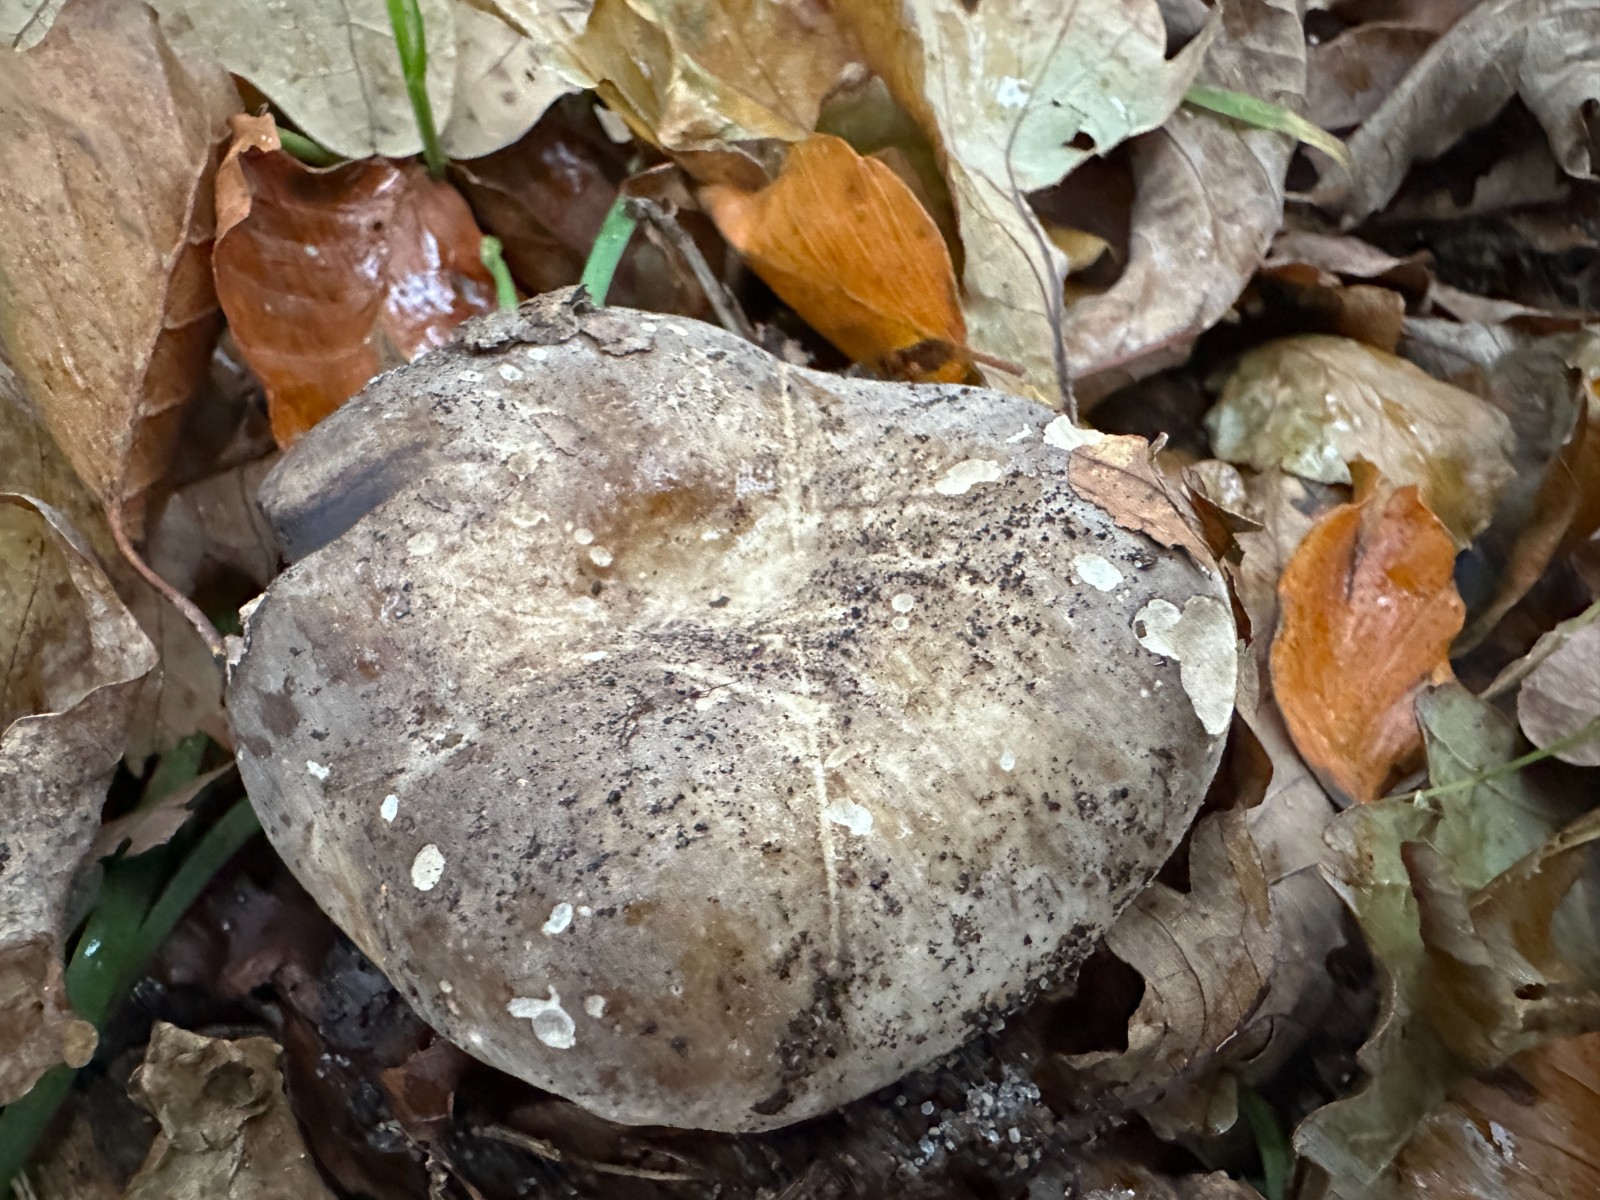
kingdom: Fungi
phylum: Basidiomycota
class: Agaricomycetes
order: Russulales
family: Russulaceae
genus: Russula
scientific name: Russula adusta
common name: sværtende skørhat
